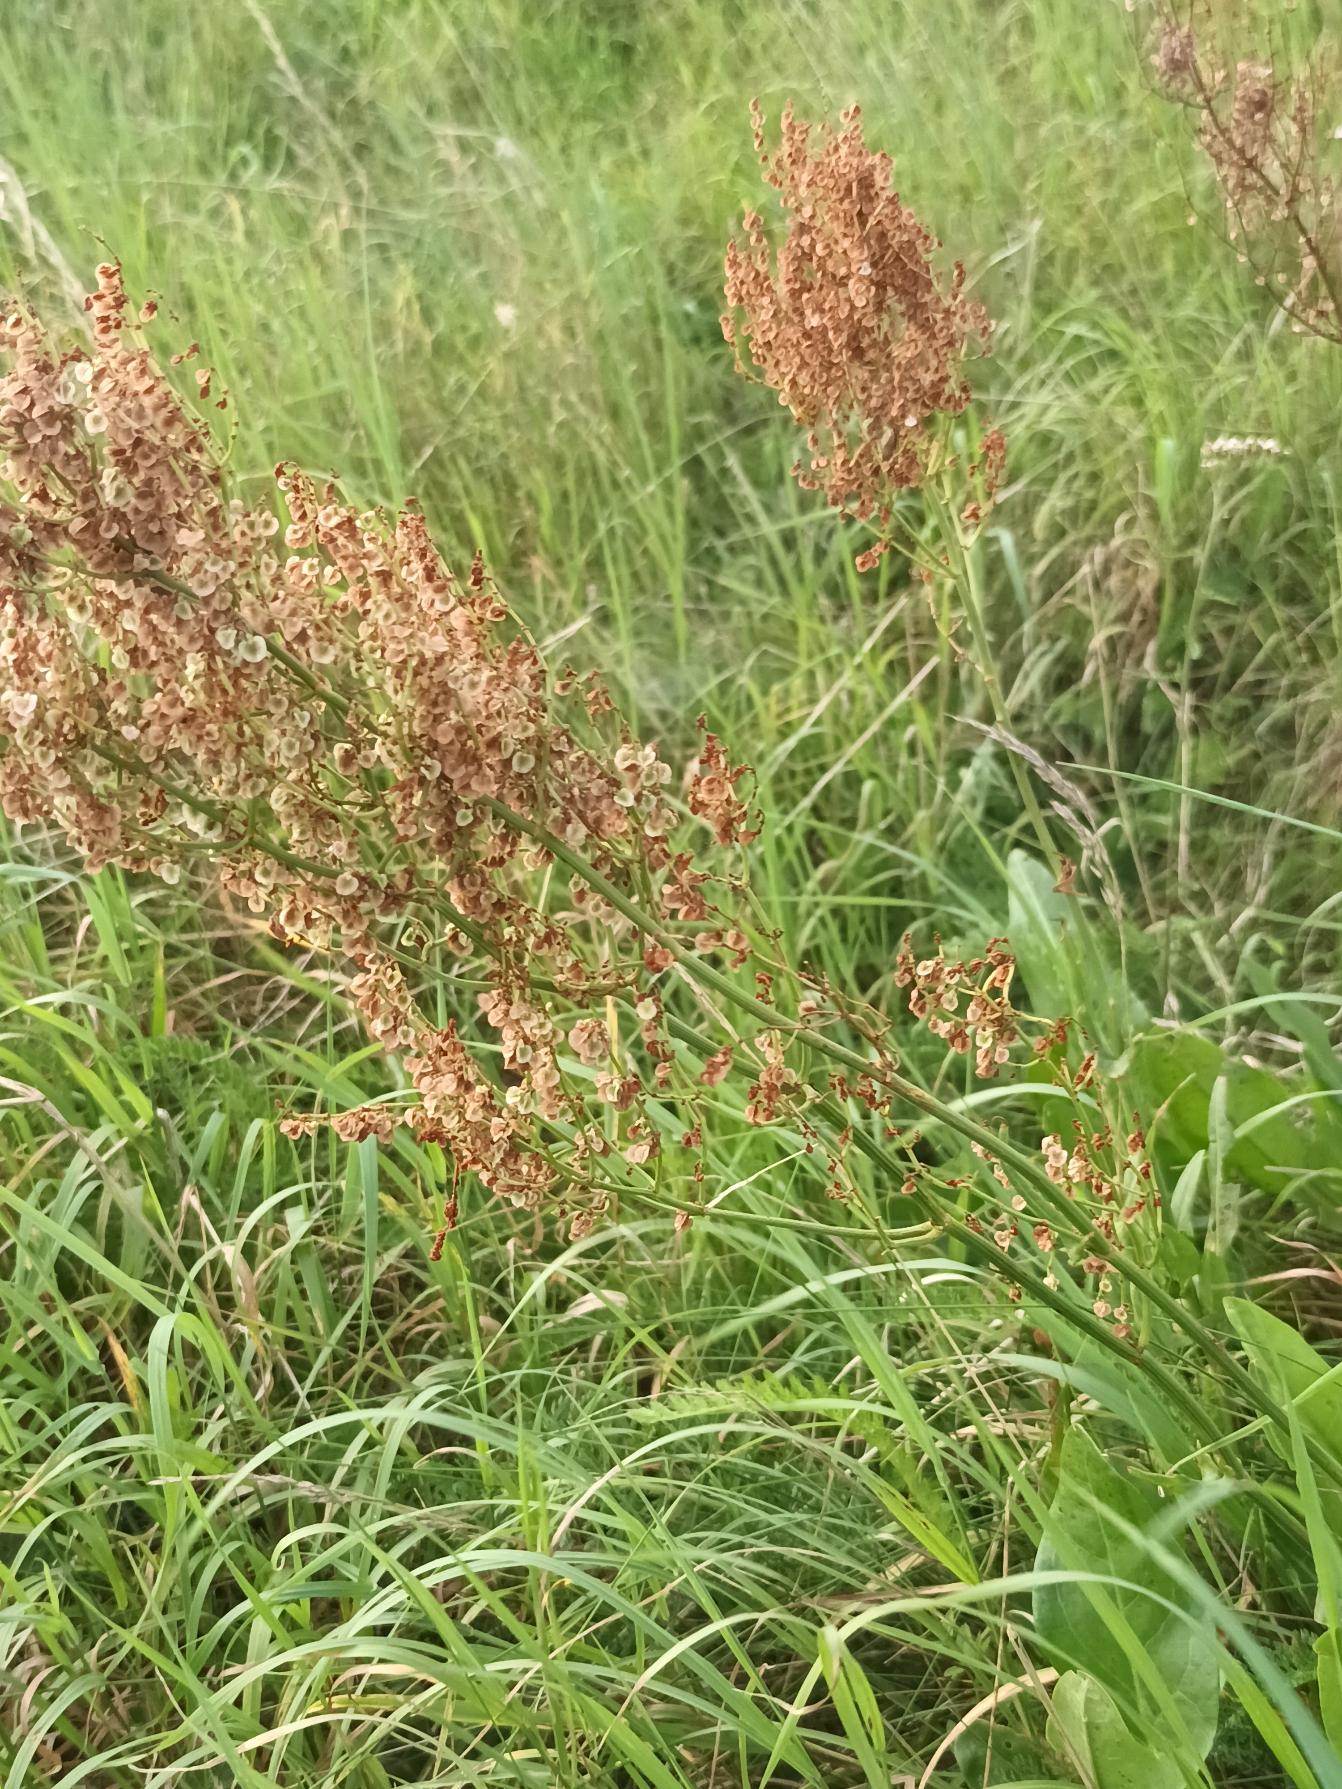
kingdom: Plantae
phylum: Tracheophyta
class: Magnoliopsida
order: Caryophyllales
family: Polygonaceae
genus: Rumex
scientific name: Rumex thyrsiflorus
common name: Dusk-syre
